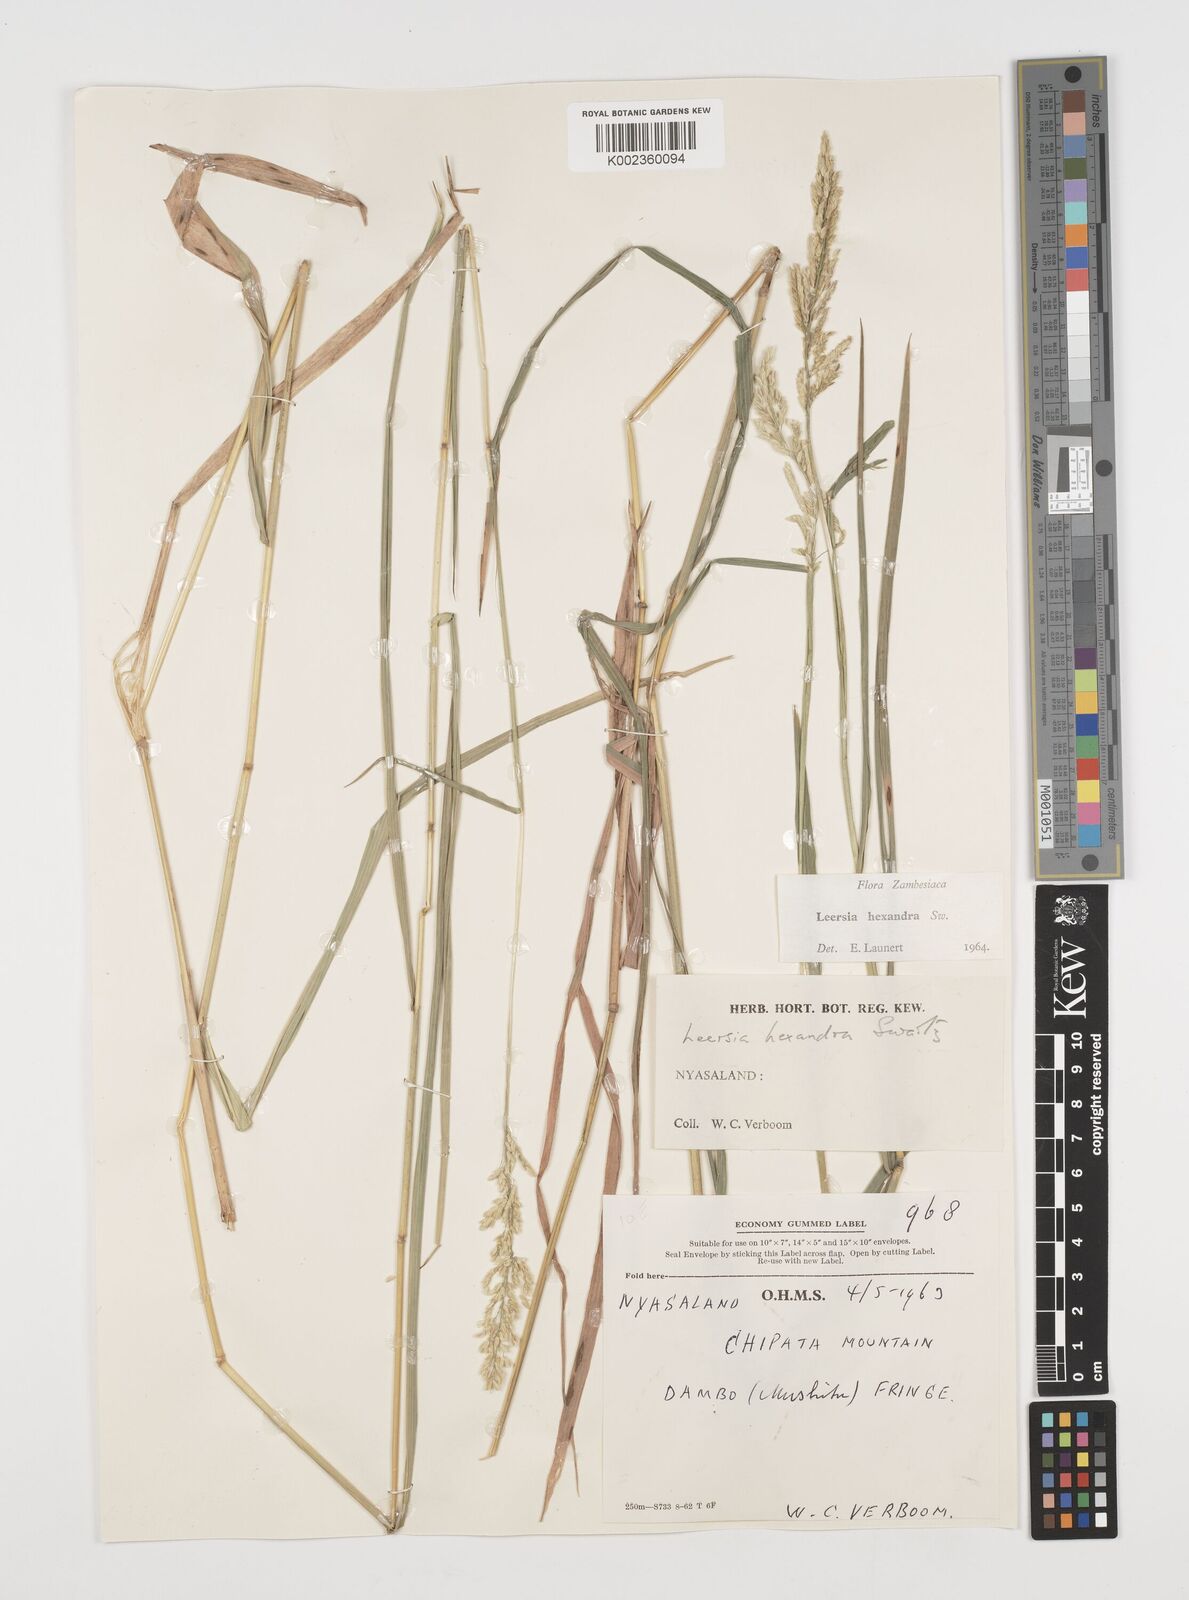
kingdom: Plantae
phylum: Tracheophyta
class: Liliopsida
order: Poales
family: Poaceae
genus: Leersia
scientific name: Leersia hexandra
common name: Southern cut grass
